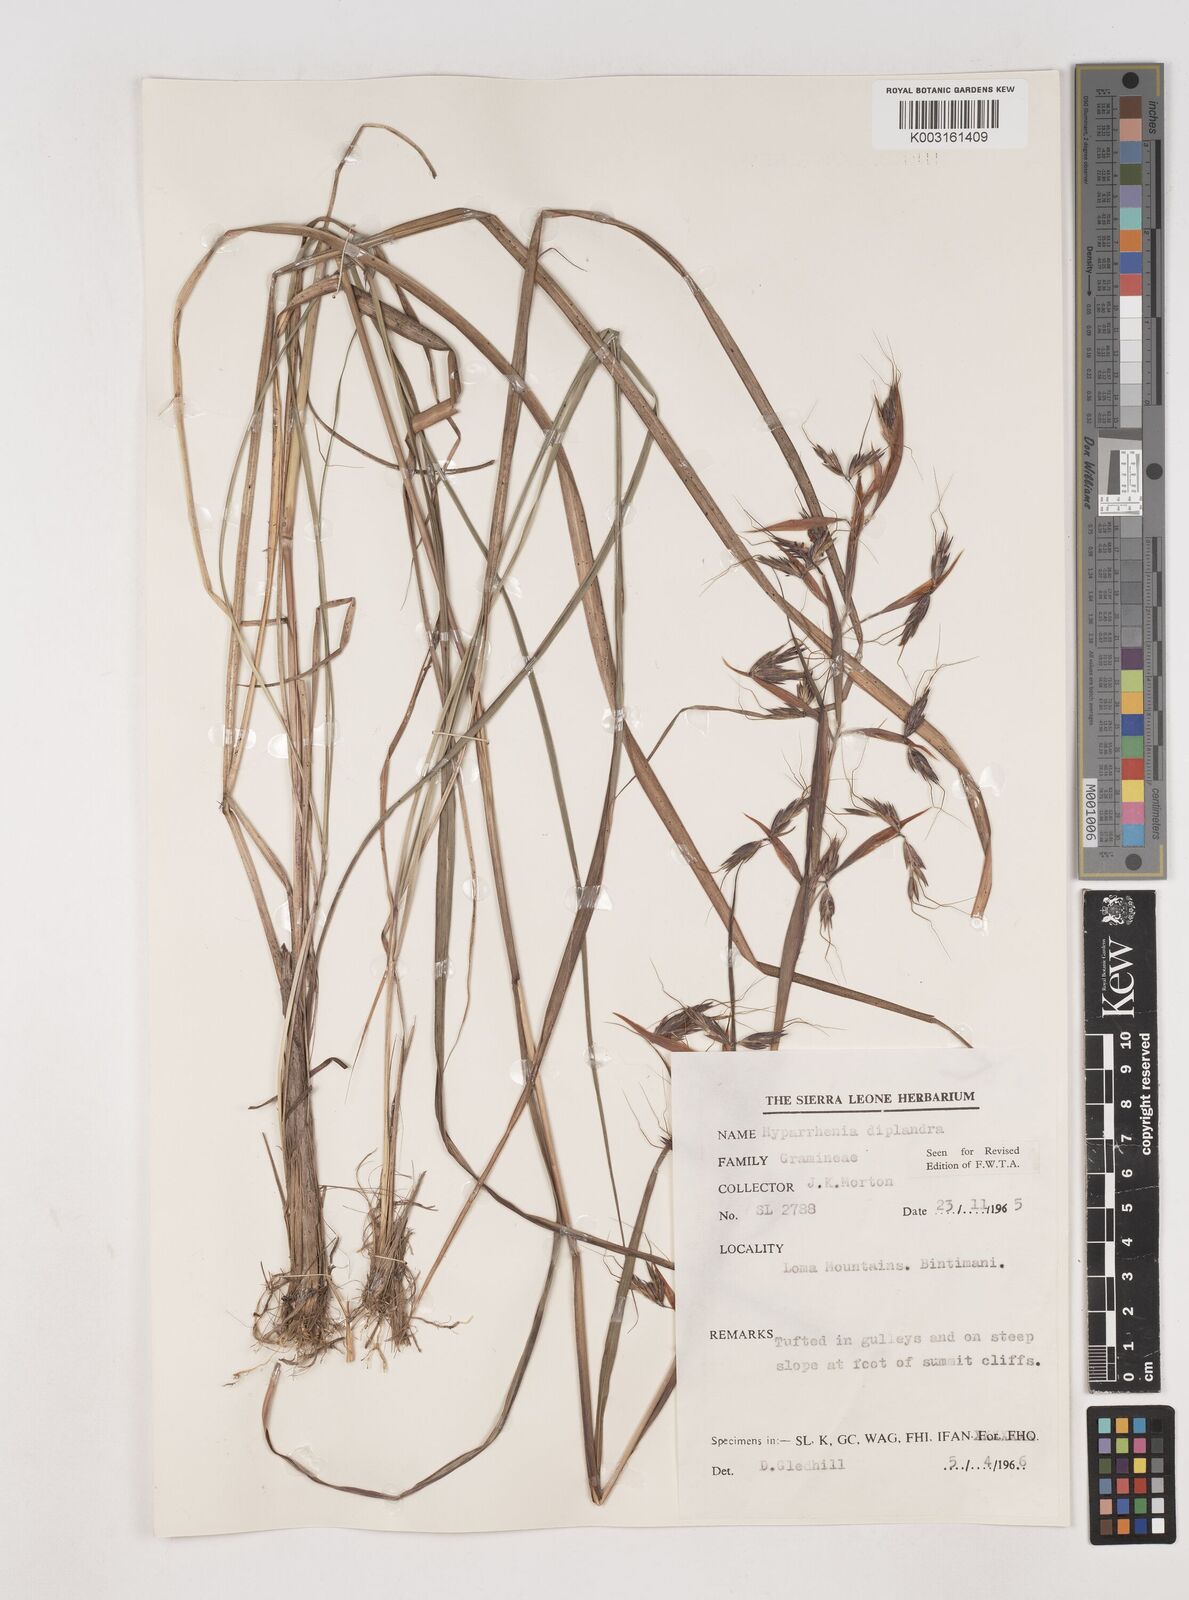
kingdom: Plantae
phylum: Tracheophyta
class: Liliopsida
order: Poales
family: Poaceae
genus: Hyparrhenia
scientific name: Hyparrhenia diplandra
